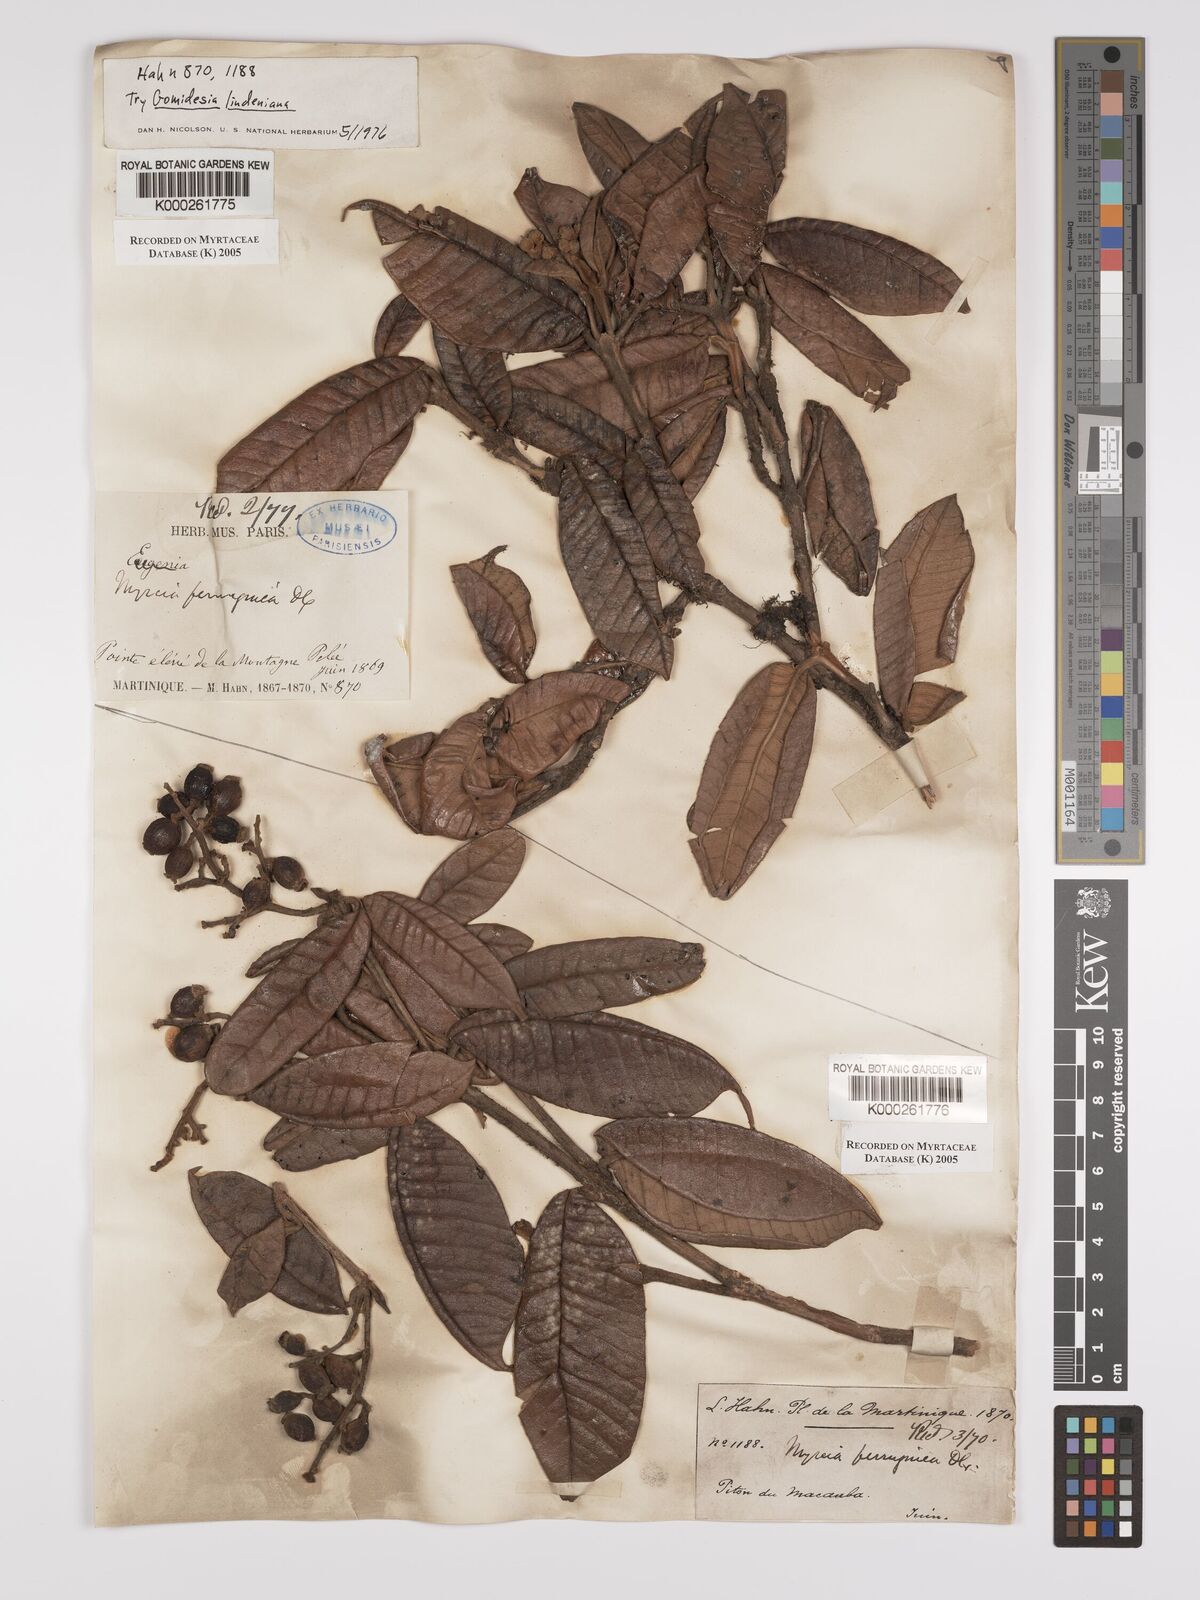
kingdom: Plantae
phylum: Tracheophyta
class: Magnoliopsida
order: Myrtales
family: Myrtaceae
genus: Myrcia
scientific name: Myrcia ferruginea
